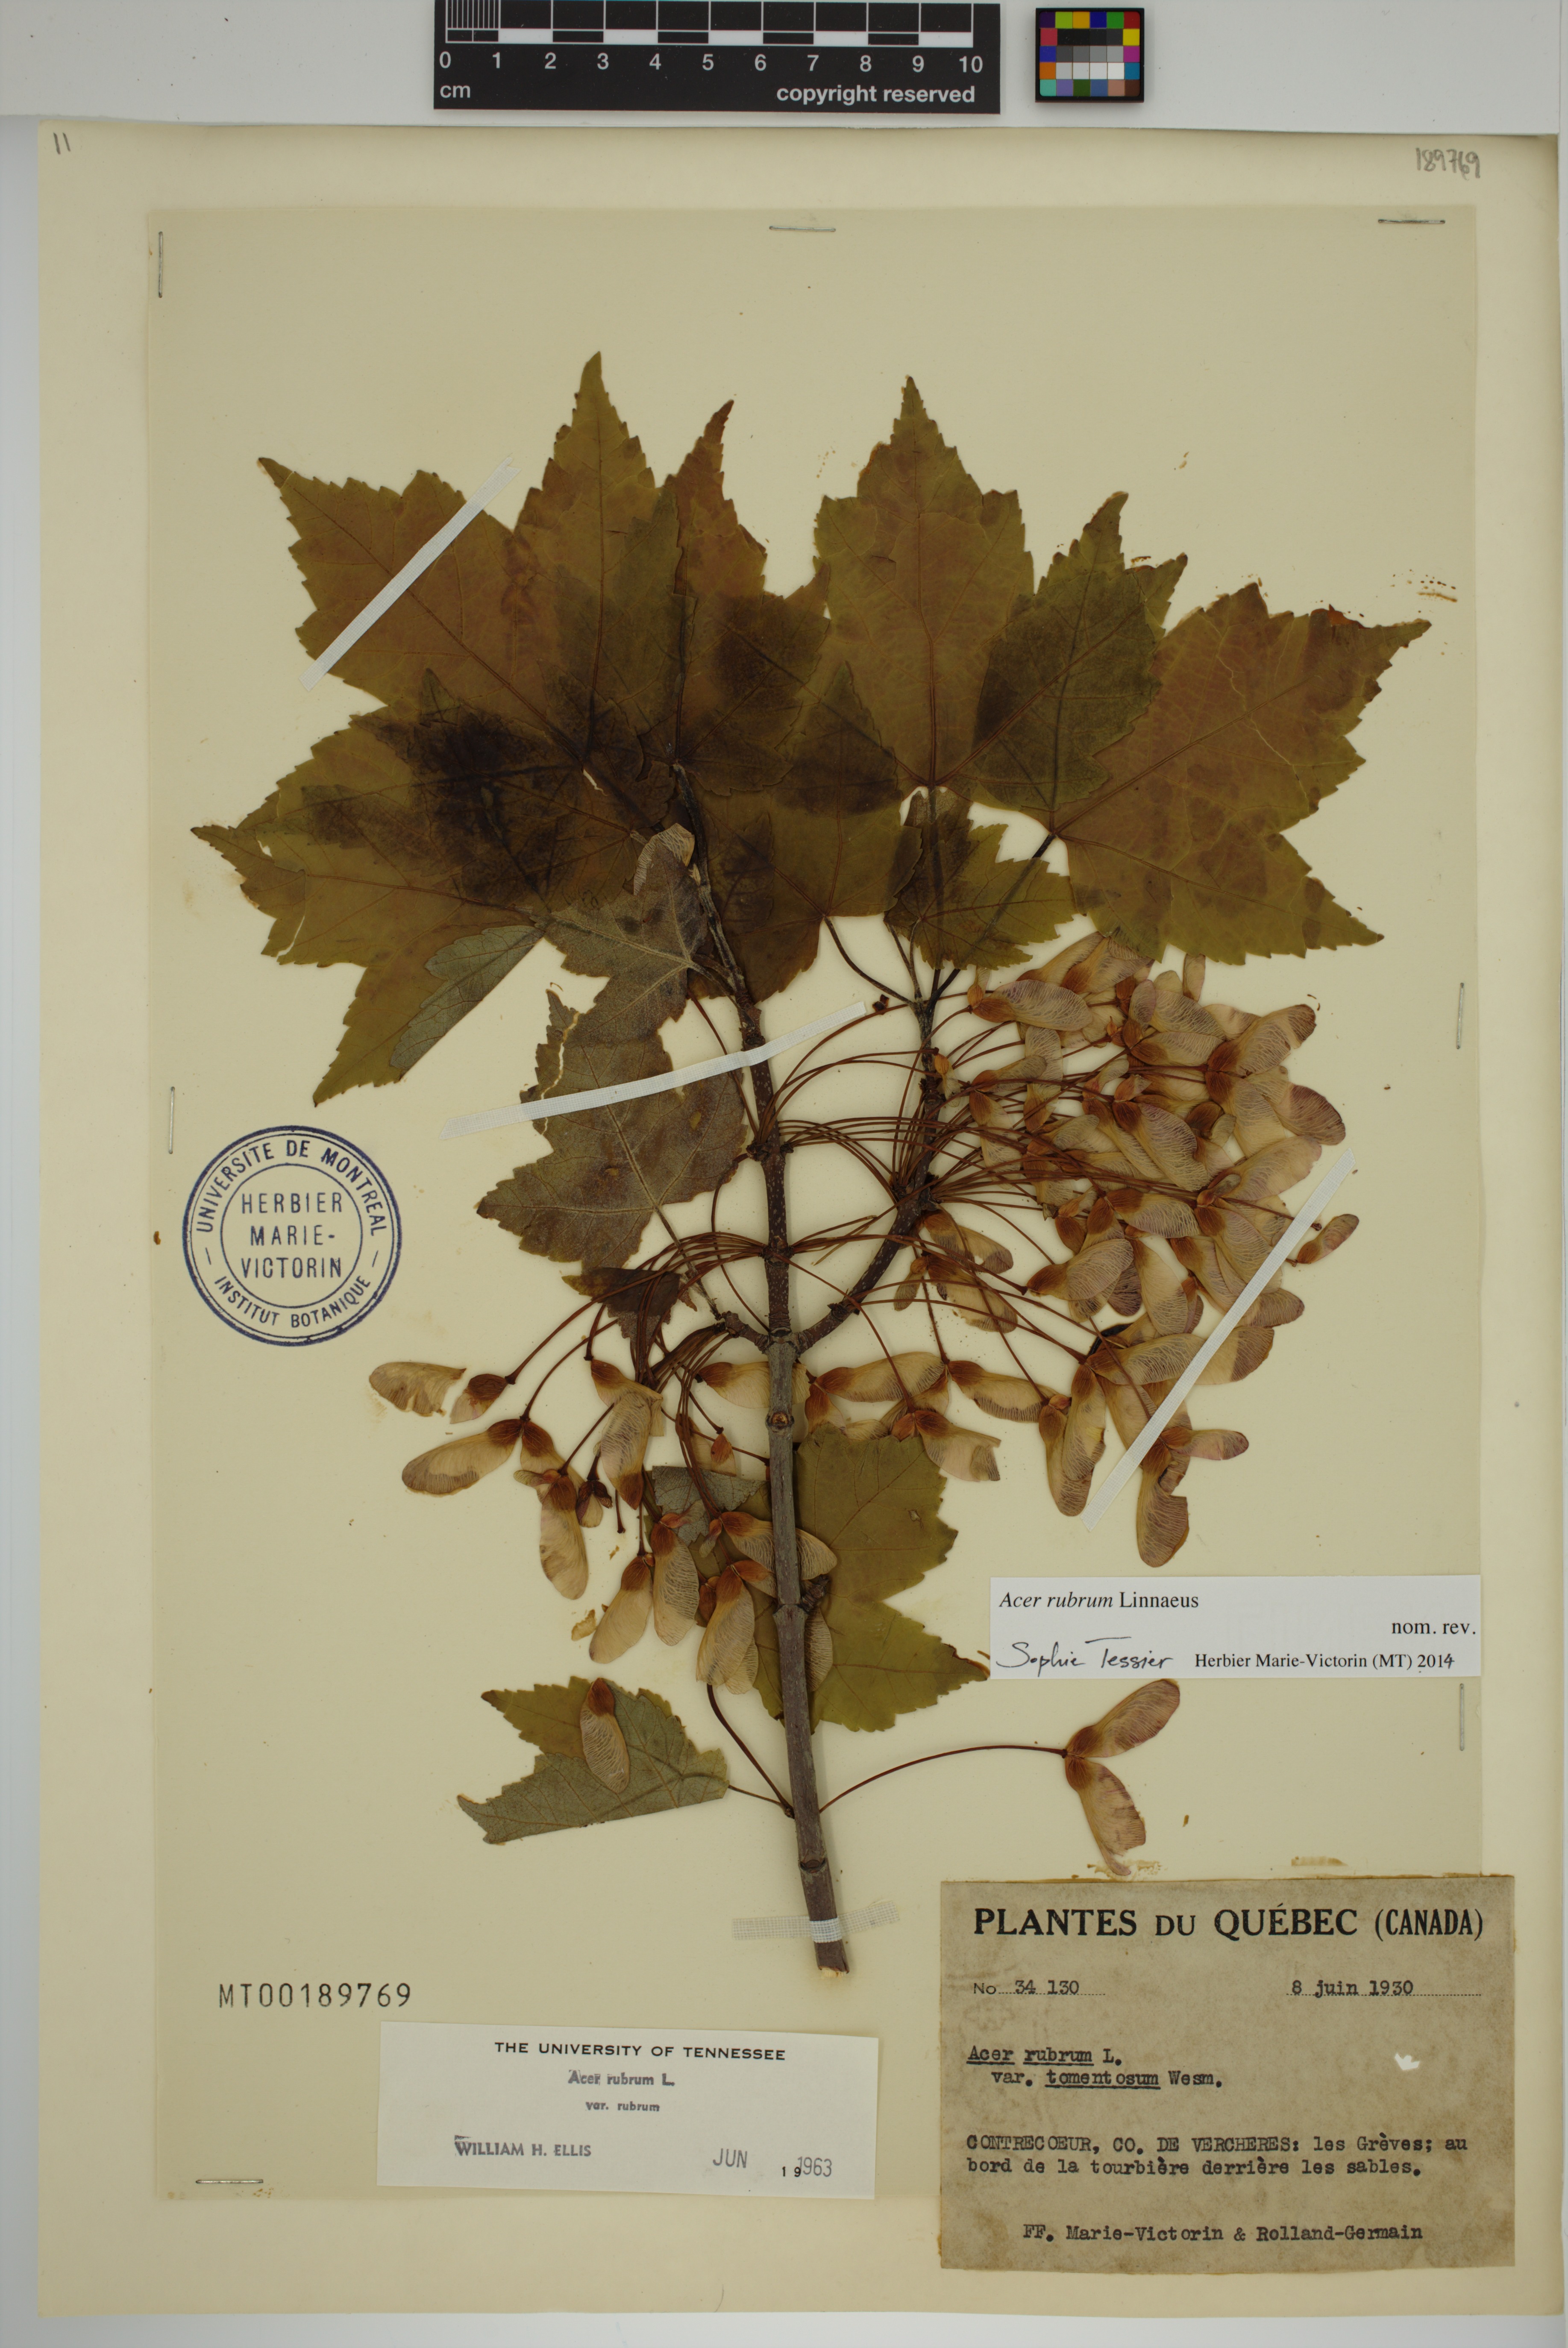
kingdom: Plantae
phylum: Tracheophyta
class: Magnoliopsida
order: Sapindales
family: Sapindaceae
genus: Acer
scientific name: Acer rubrum
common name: Red maple
